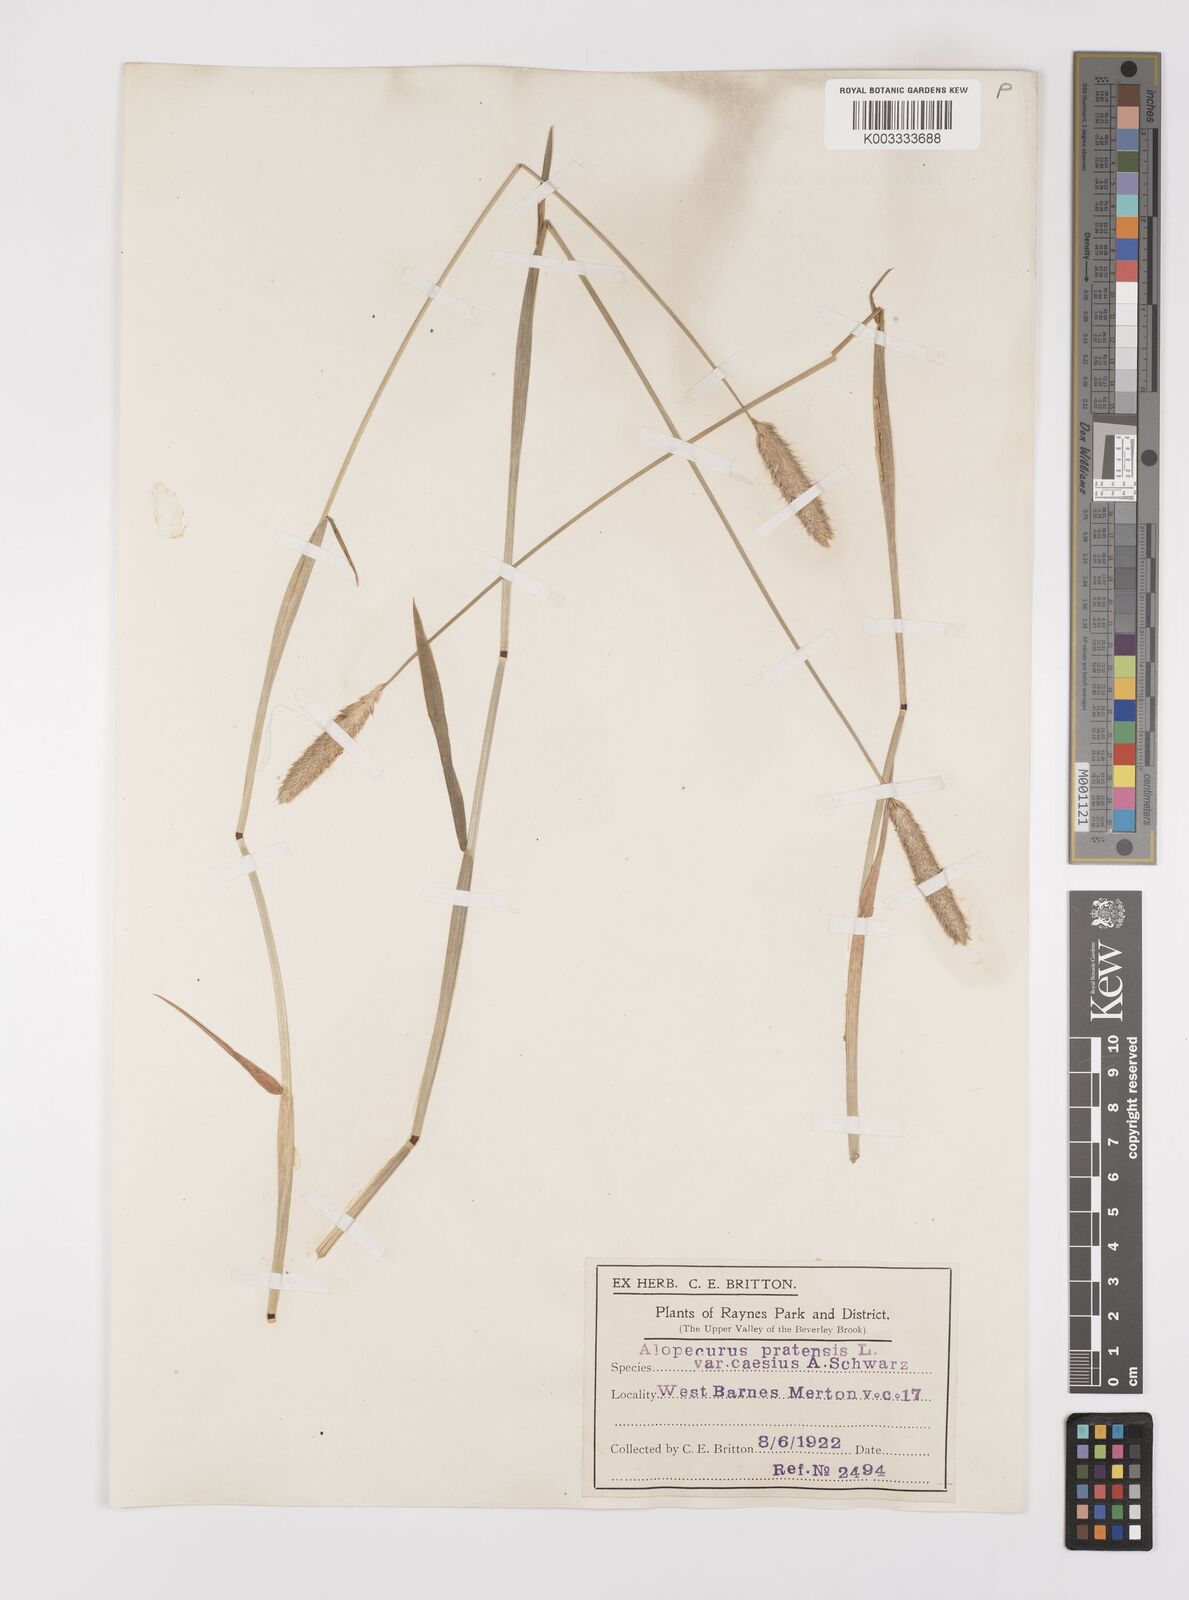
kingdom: Plantae
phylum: Tracheophyta
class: Liliopsida
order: Poales
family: Poaceae
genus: Alopecurus
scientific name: Alopecurus pratensis
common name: Meadow foxtail
